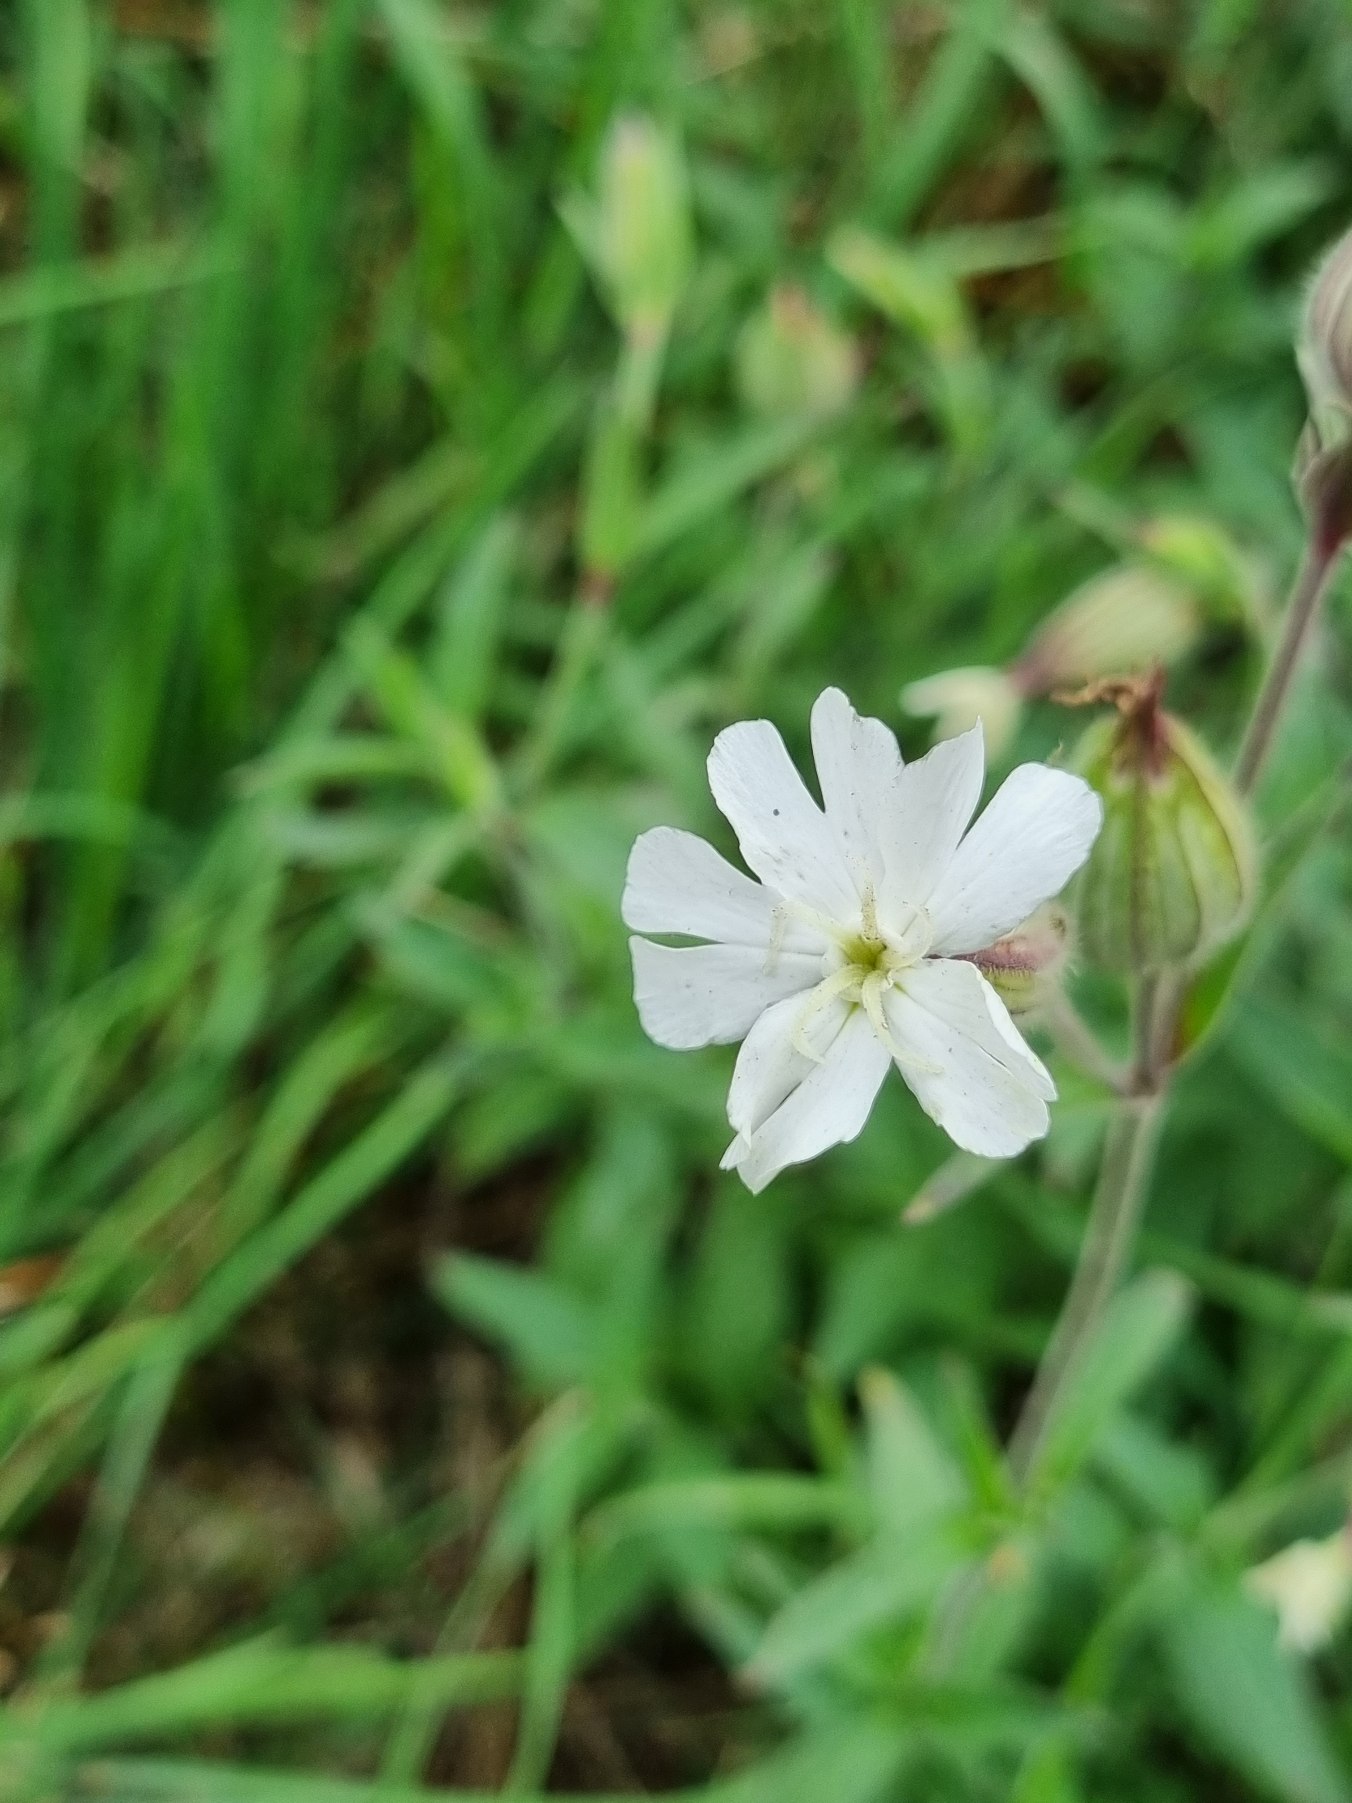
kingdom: Plantae
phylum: Tracheophyta
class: Magnoliopsida
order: Caryophyllales
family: Caryophyllaceae
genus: Silene
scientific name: Silene latifolia
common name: Aftenpragtstjerne
